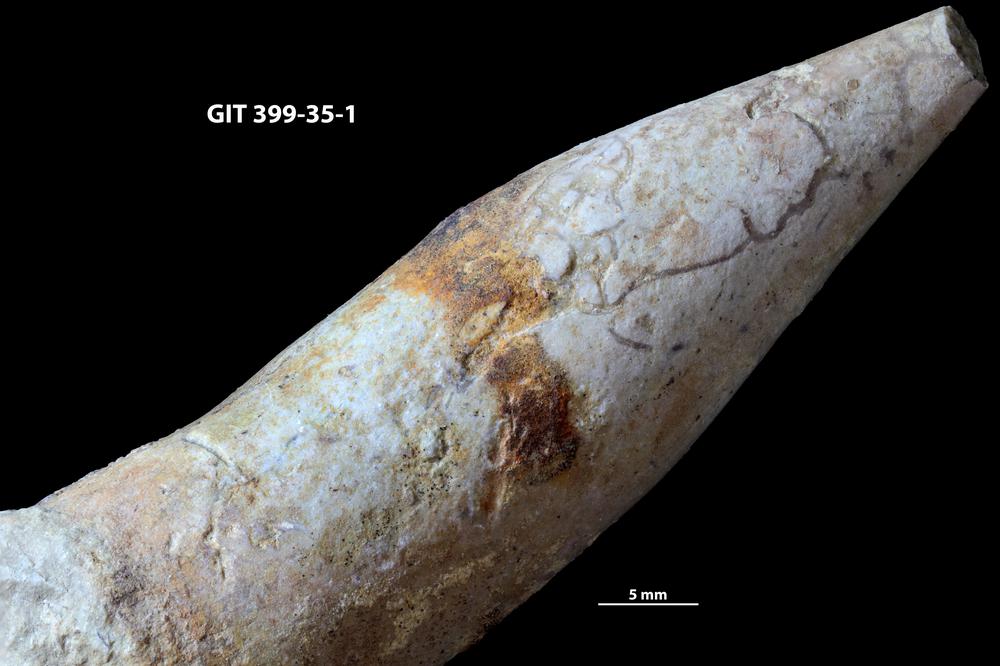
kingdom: Animalia
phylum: Annelida
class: Polychaeta
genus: Arachnostega
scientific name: Arachnostega gastrochaenae
